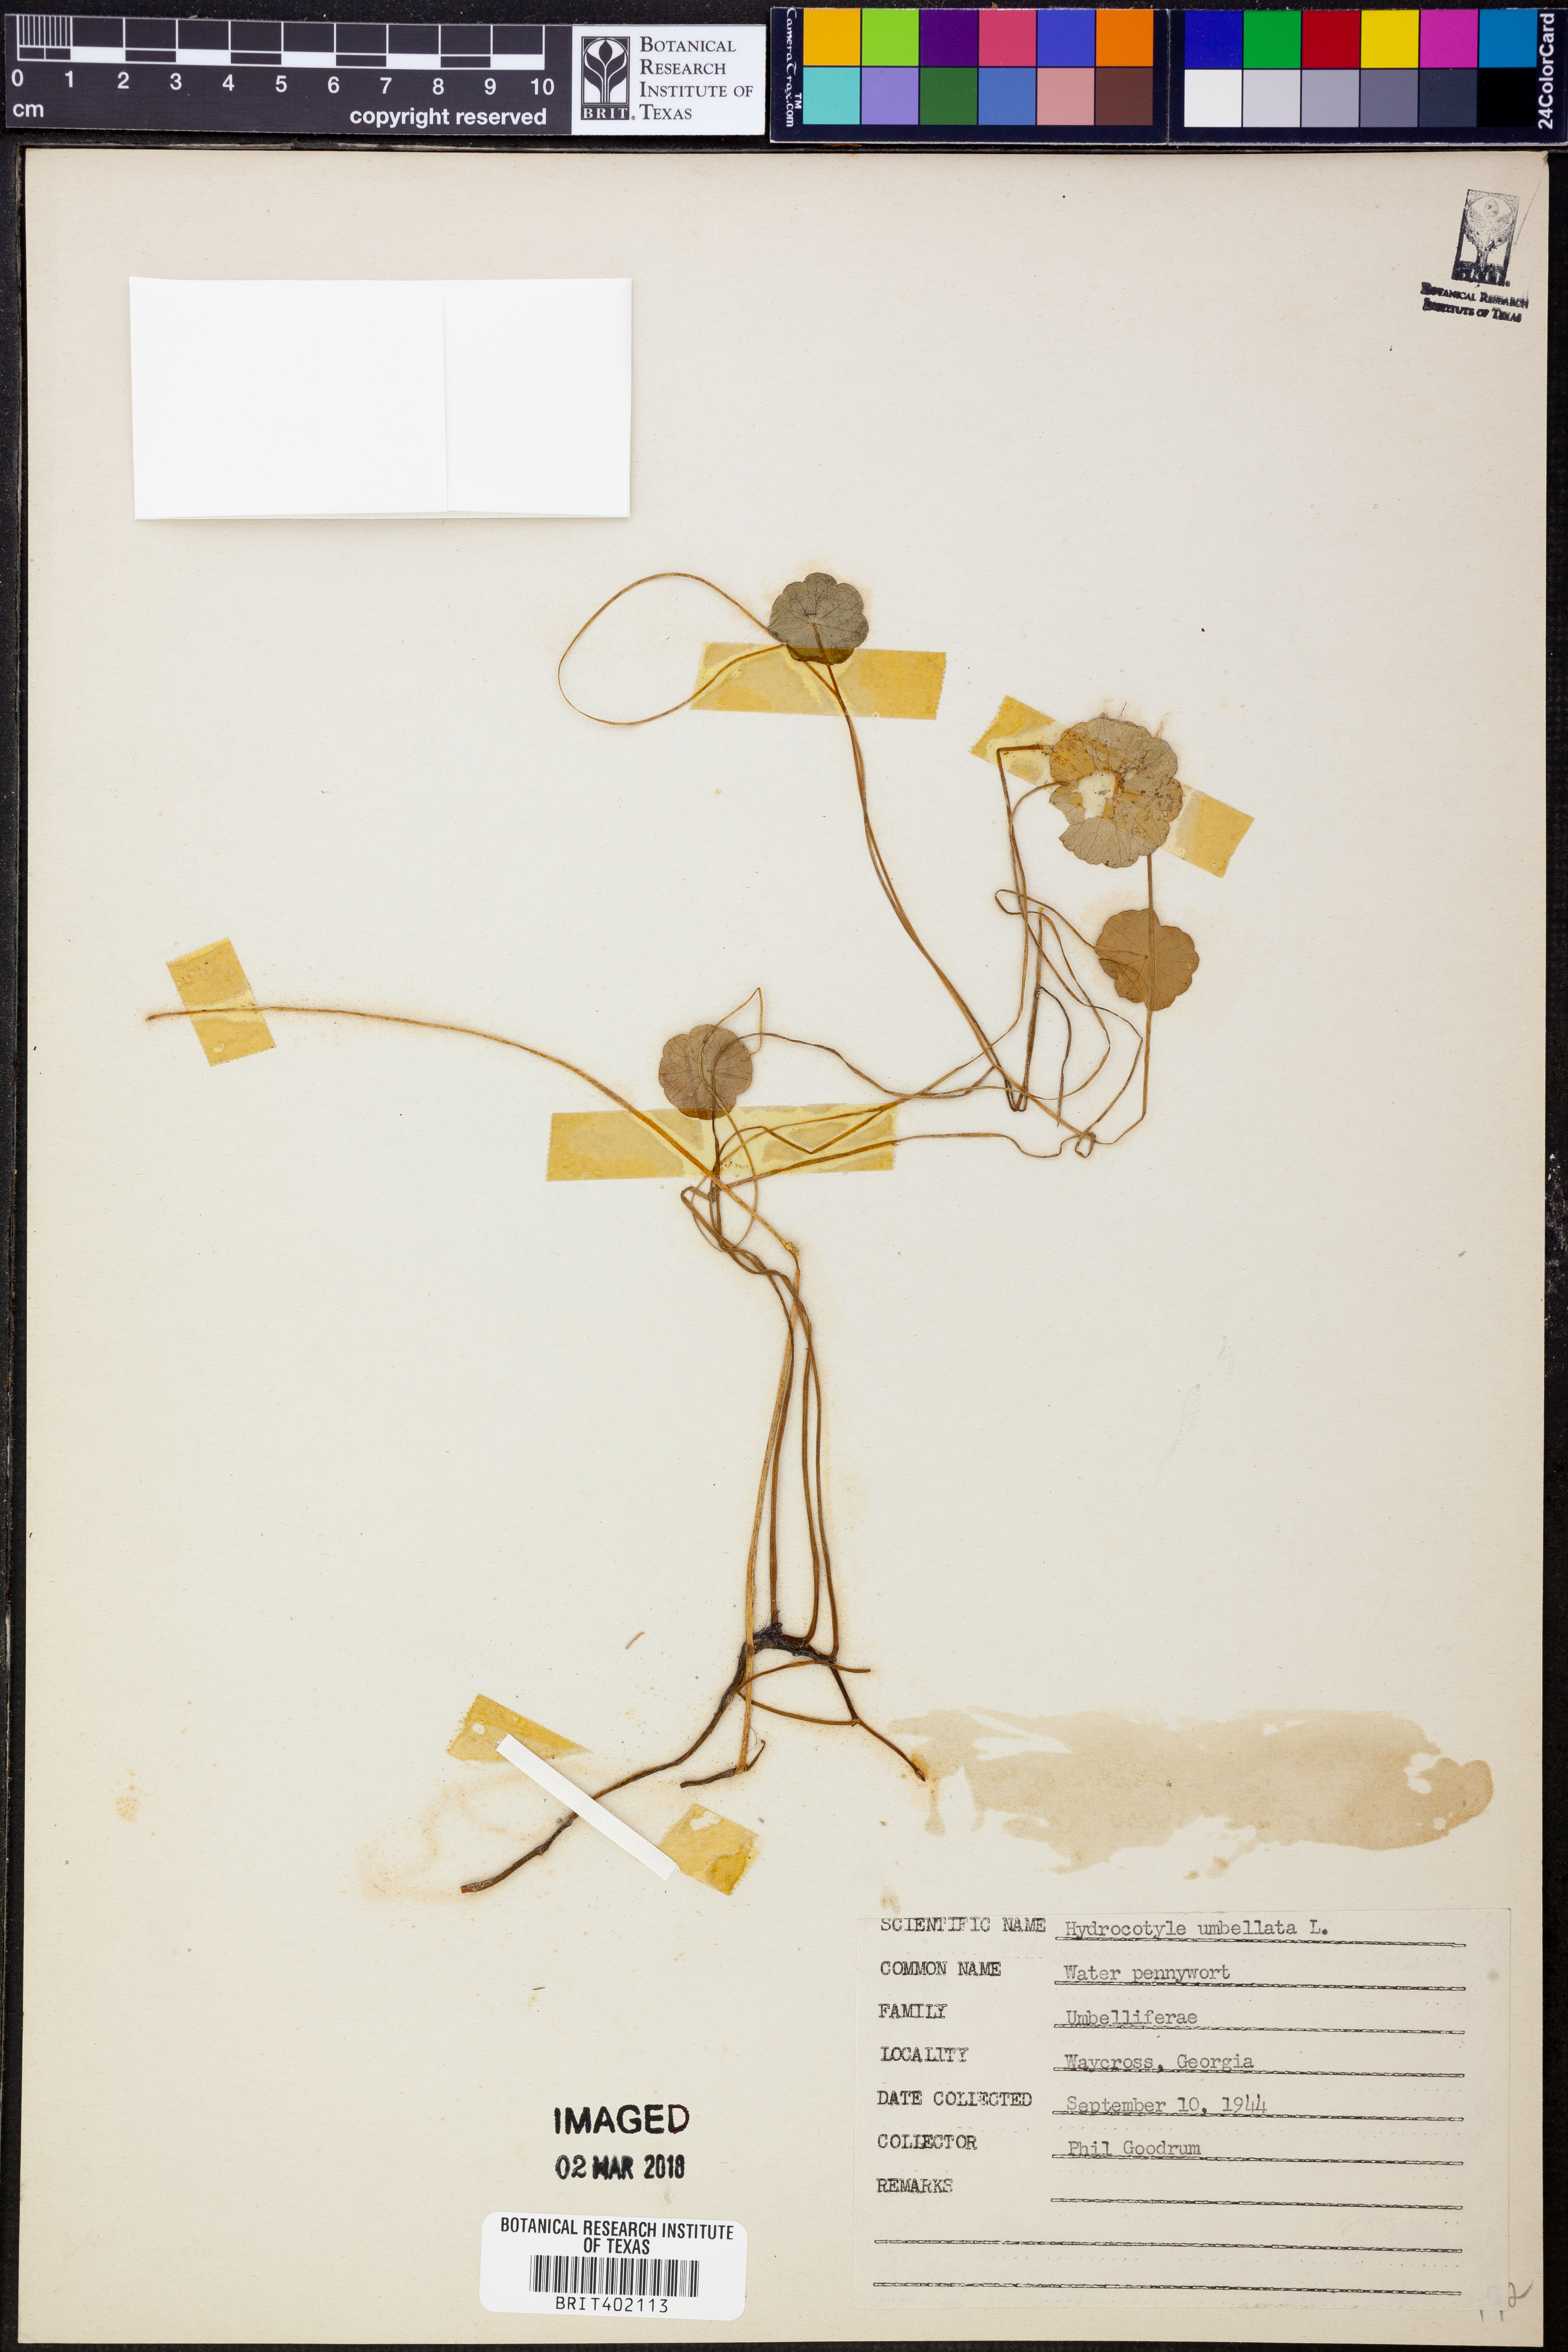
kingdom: Plantae
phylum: Tracheophyta
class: Magnoliopsida
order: Apiales
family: Araliaceae
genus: Hydrocotyle
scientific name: Hydrocotyle umbellata
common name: Water pennywort
